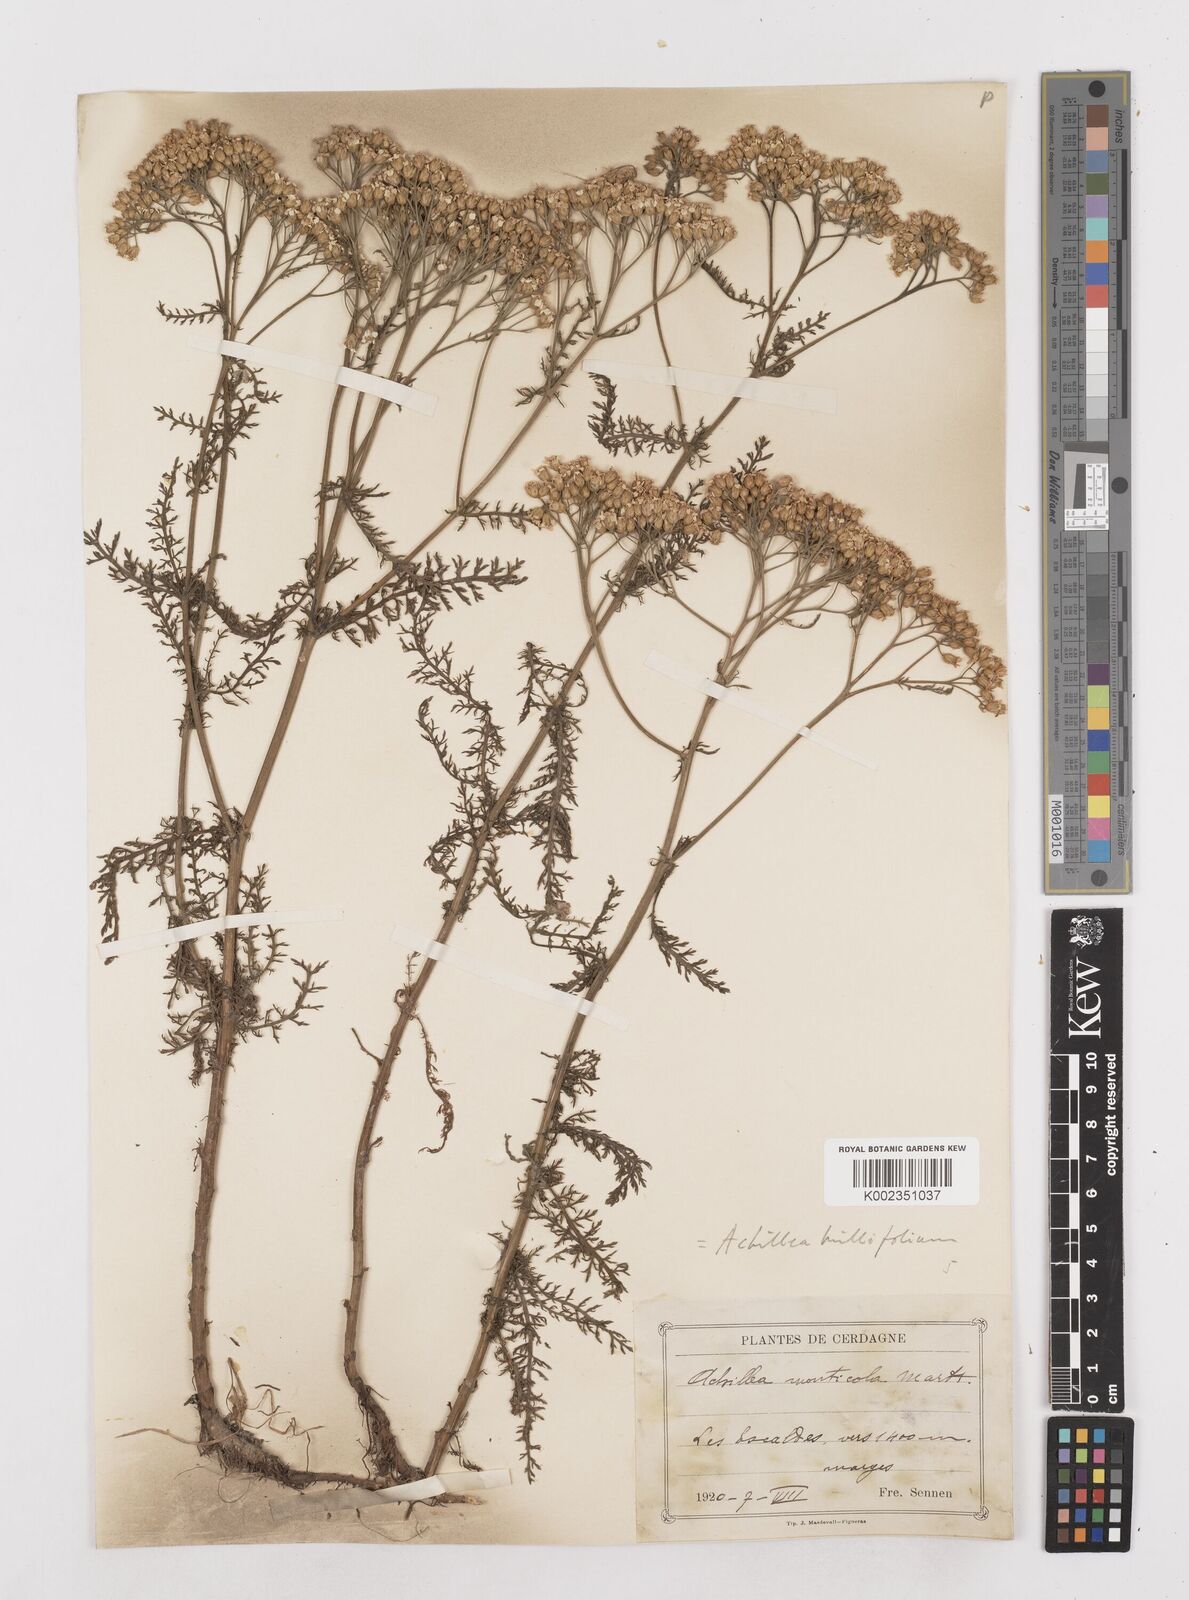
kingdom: Plantae
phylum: Tracheophyta
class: Magnoliopsida
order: Asterales
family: Asteraceae
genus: Achillea
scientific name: Achillea millefolium
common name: Yarrow
